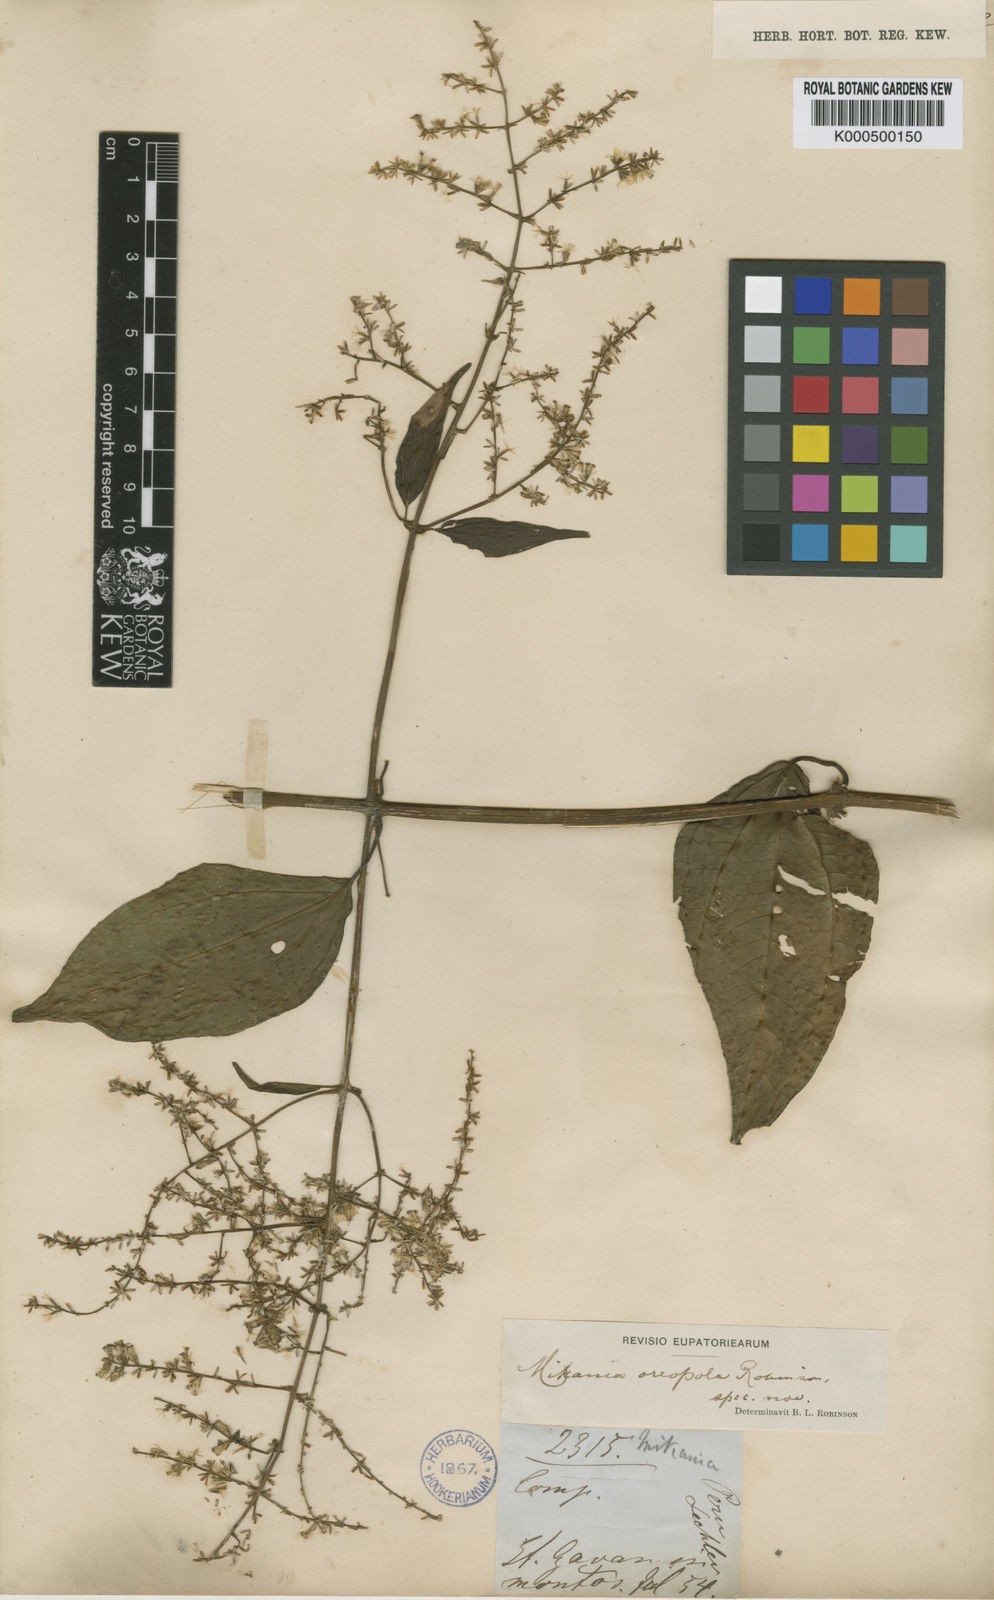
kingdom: Plantae
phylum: Tracheophyta
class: Magnoliopsida
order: Asterales
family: Asteraceae
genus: Mikania
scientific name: Mikania oreopola
